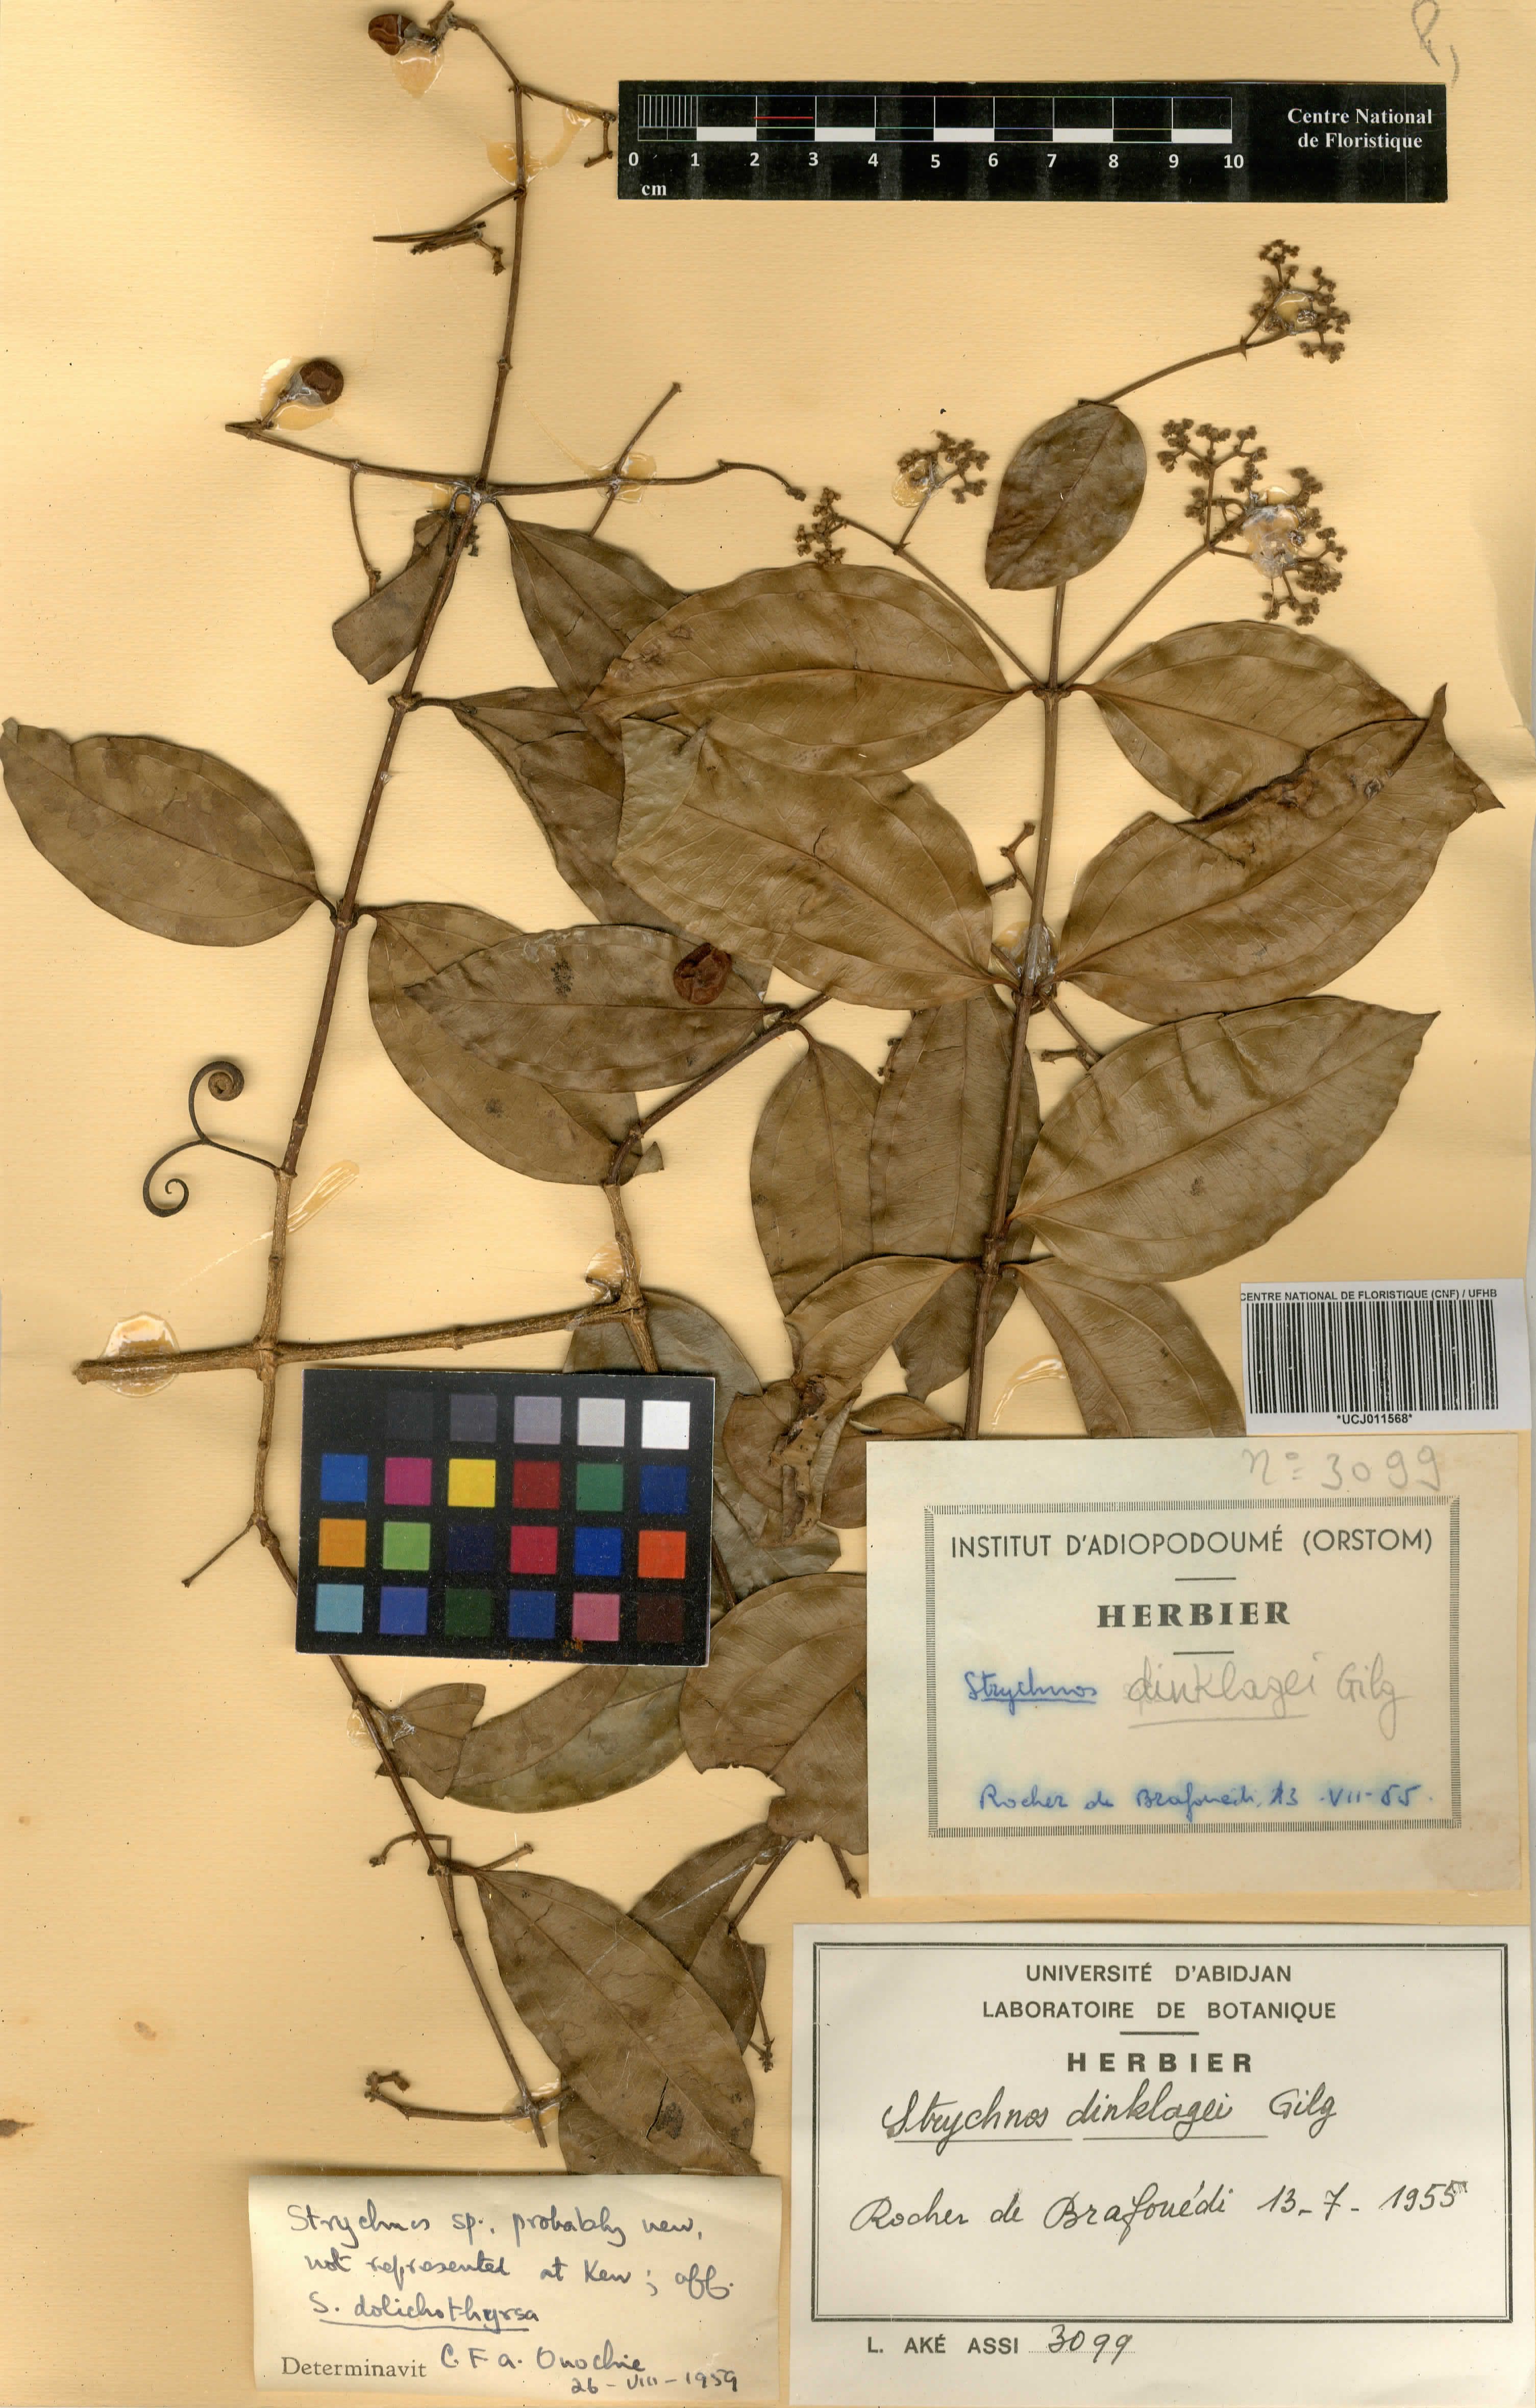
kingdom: Plantae
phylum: Tracheophyta
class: Magnoliopsida
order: Gentianales
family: Loganiaceae
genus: Strychnos
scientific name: Strychnos dinklagei
